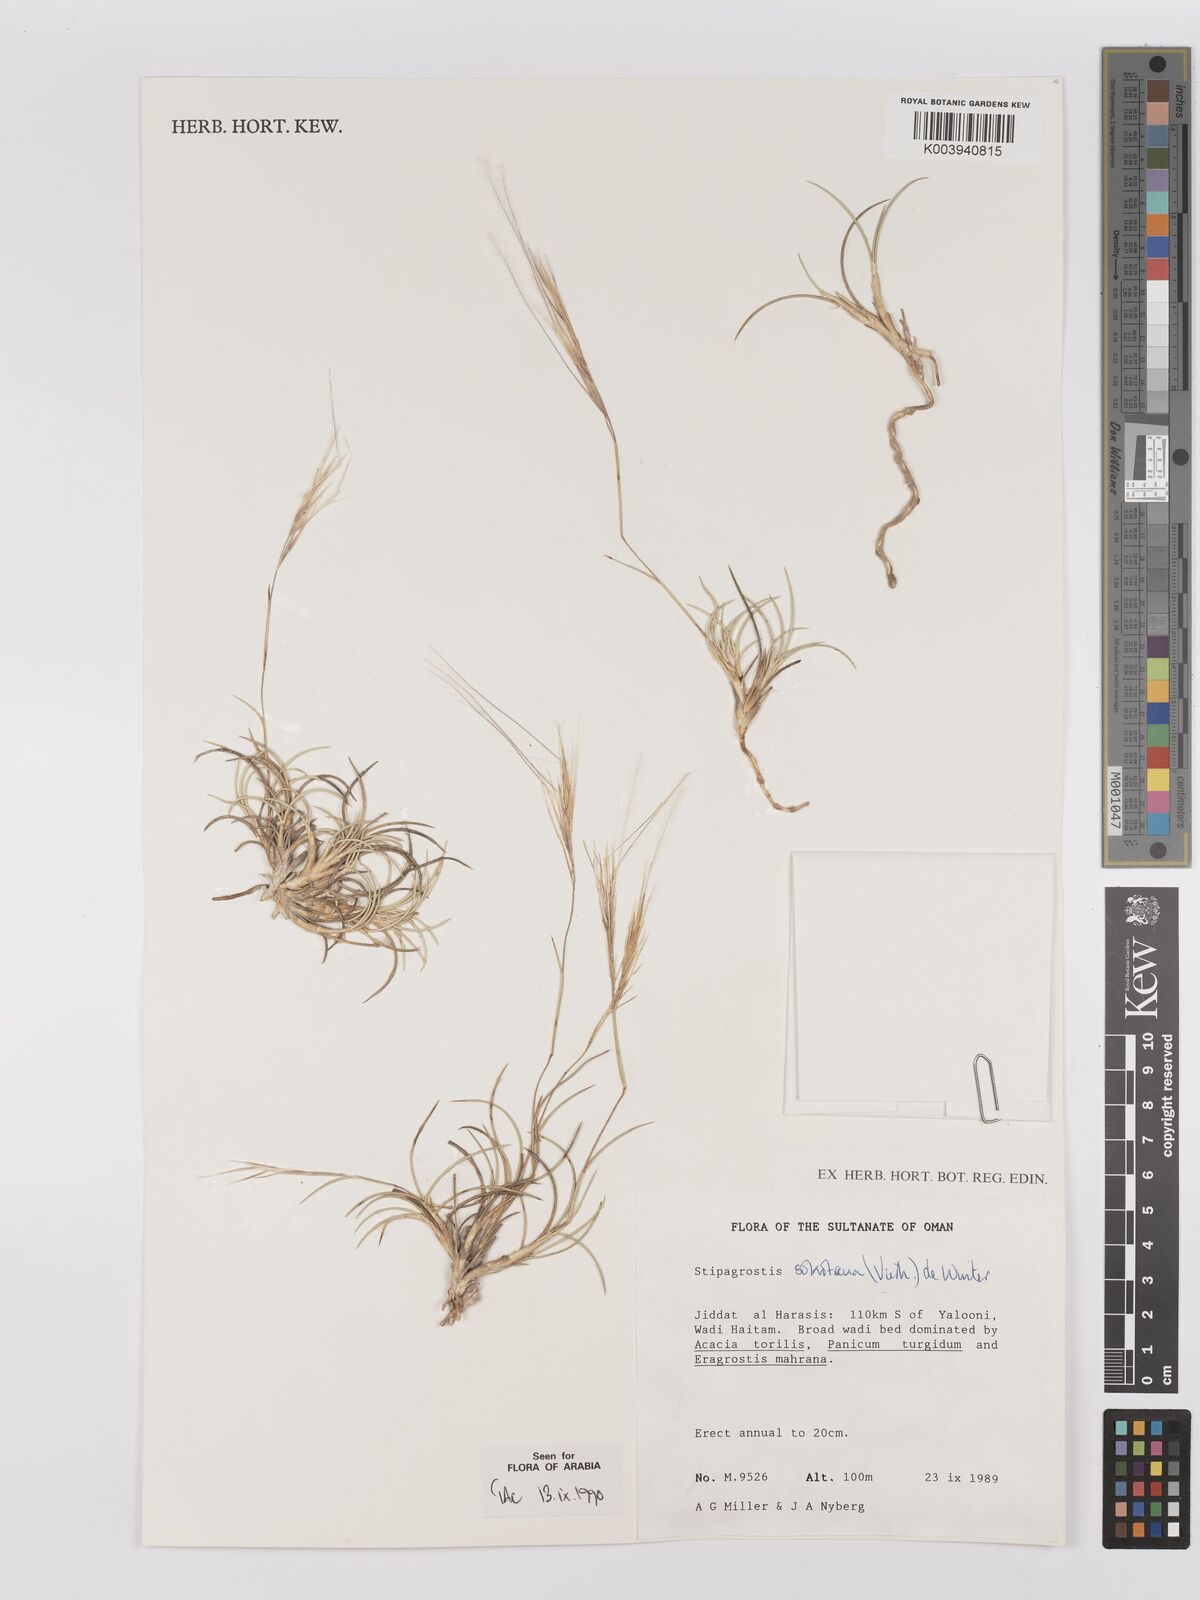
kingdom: Plantae
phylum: Tracheophyta
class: Liliopsida
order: Poales
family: Poaceae
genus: Stipagrostis
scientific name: Stipagrostis sokotrana
